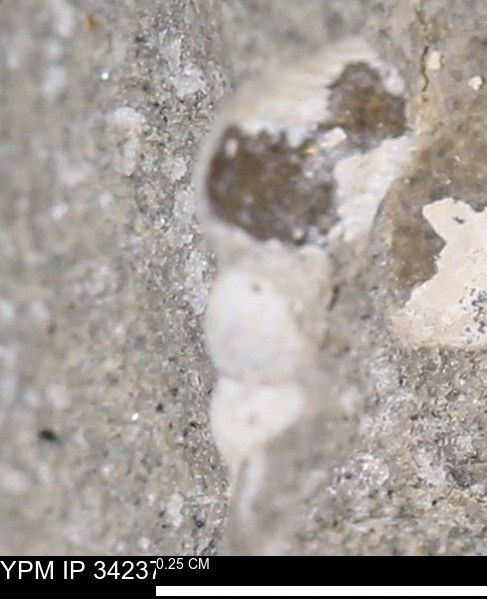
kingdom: Animalia
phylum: Mollusca
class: Gastropoda
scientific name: Gastropoda
